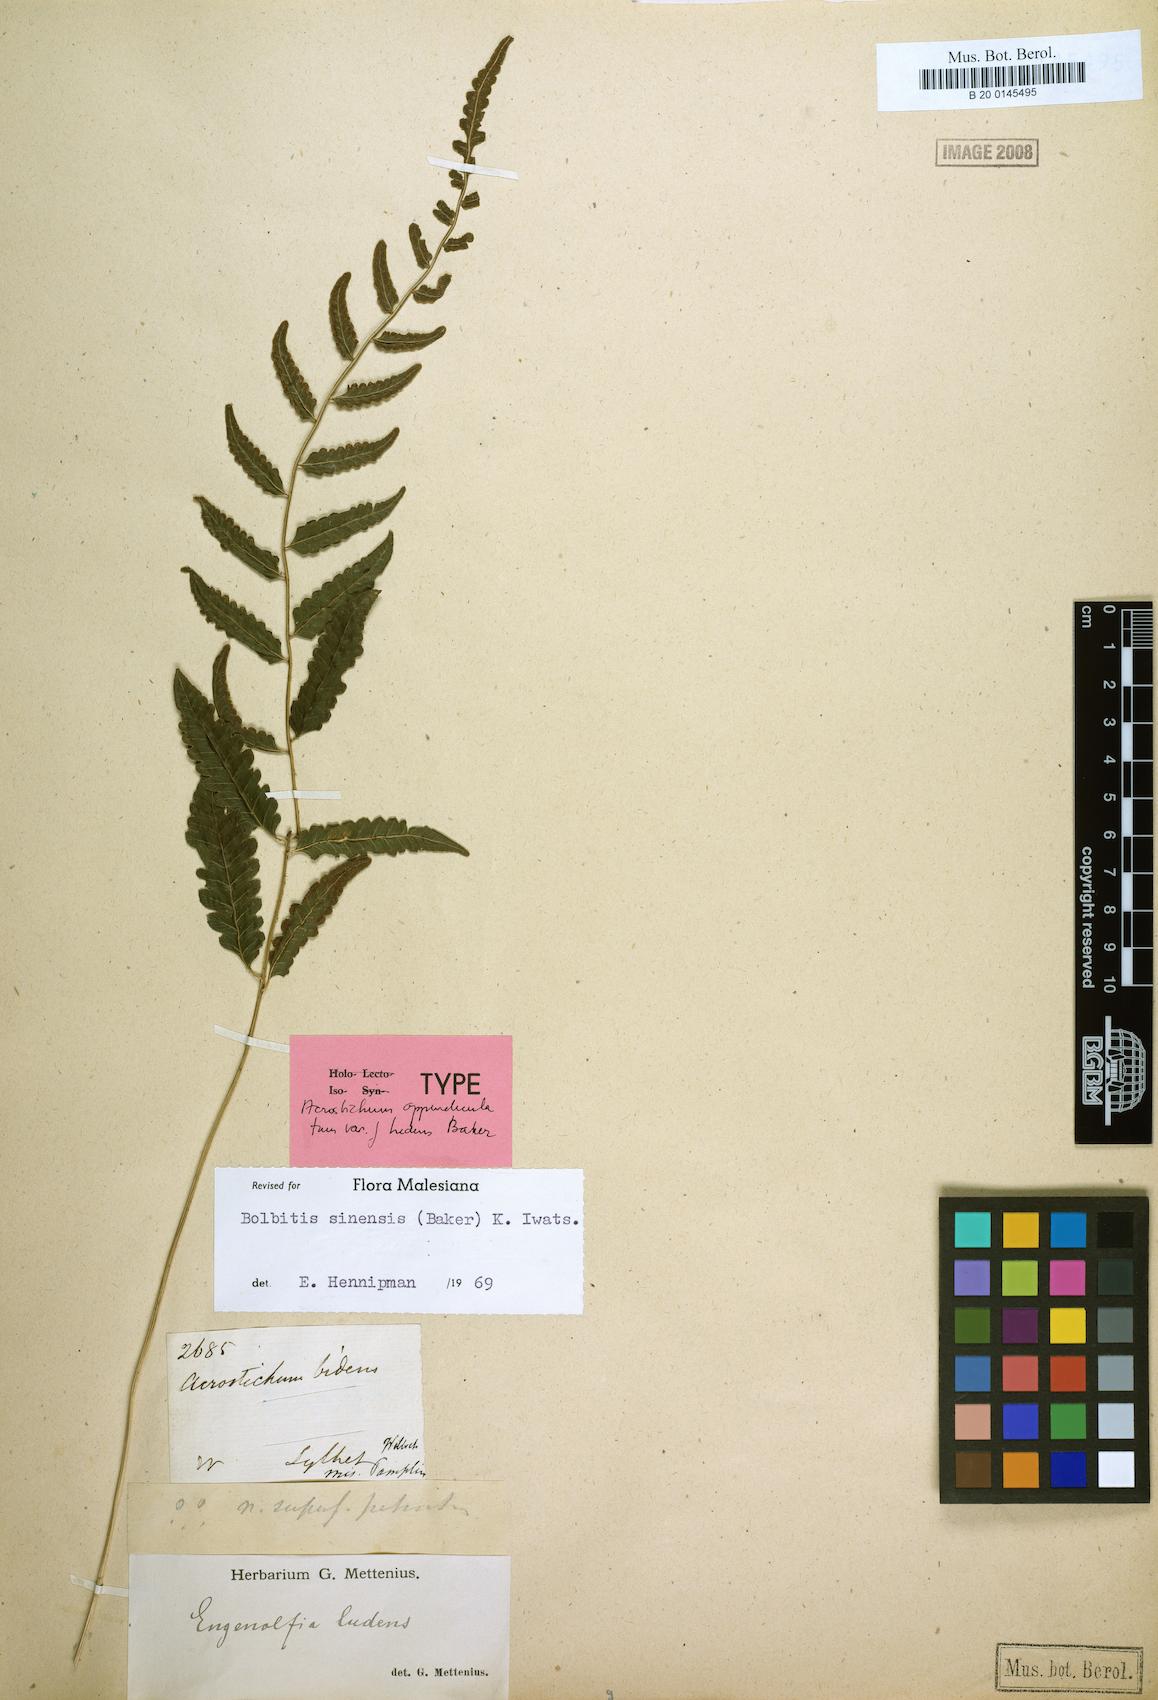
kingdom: Plantae
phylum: Tracheophyta
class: Polypodiopsida
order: Polypodiales
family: Dryopteridaceae
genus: Bolbitis
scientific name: Bolbitis sinensis
